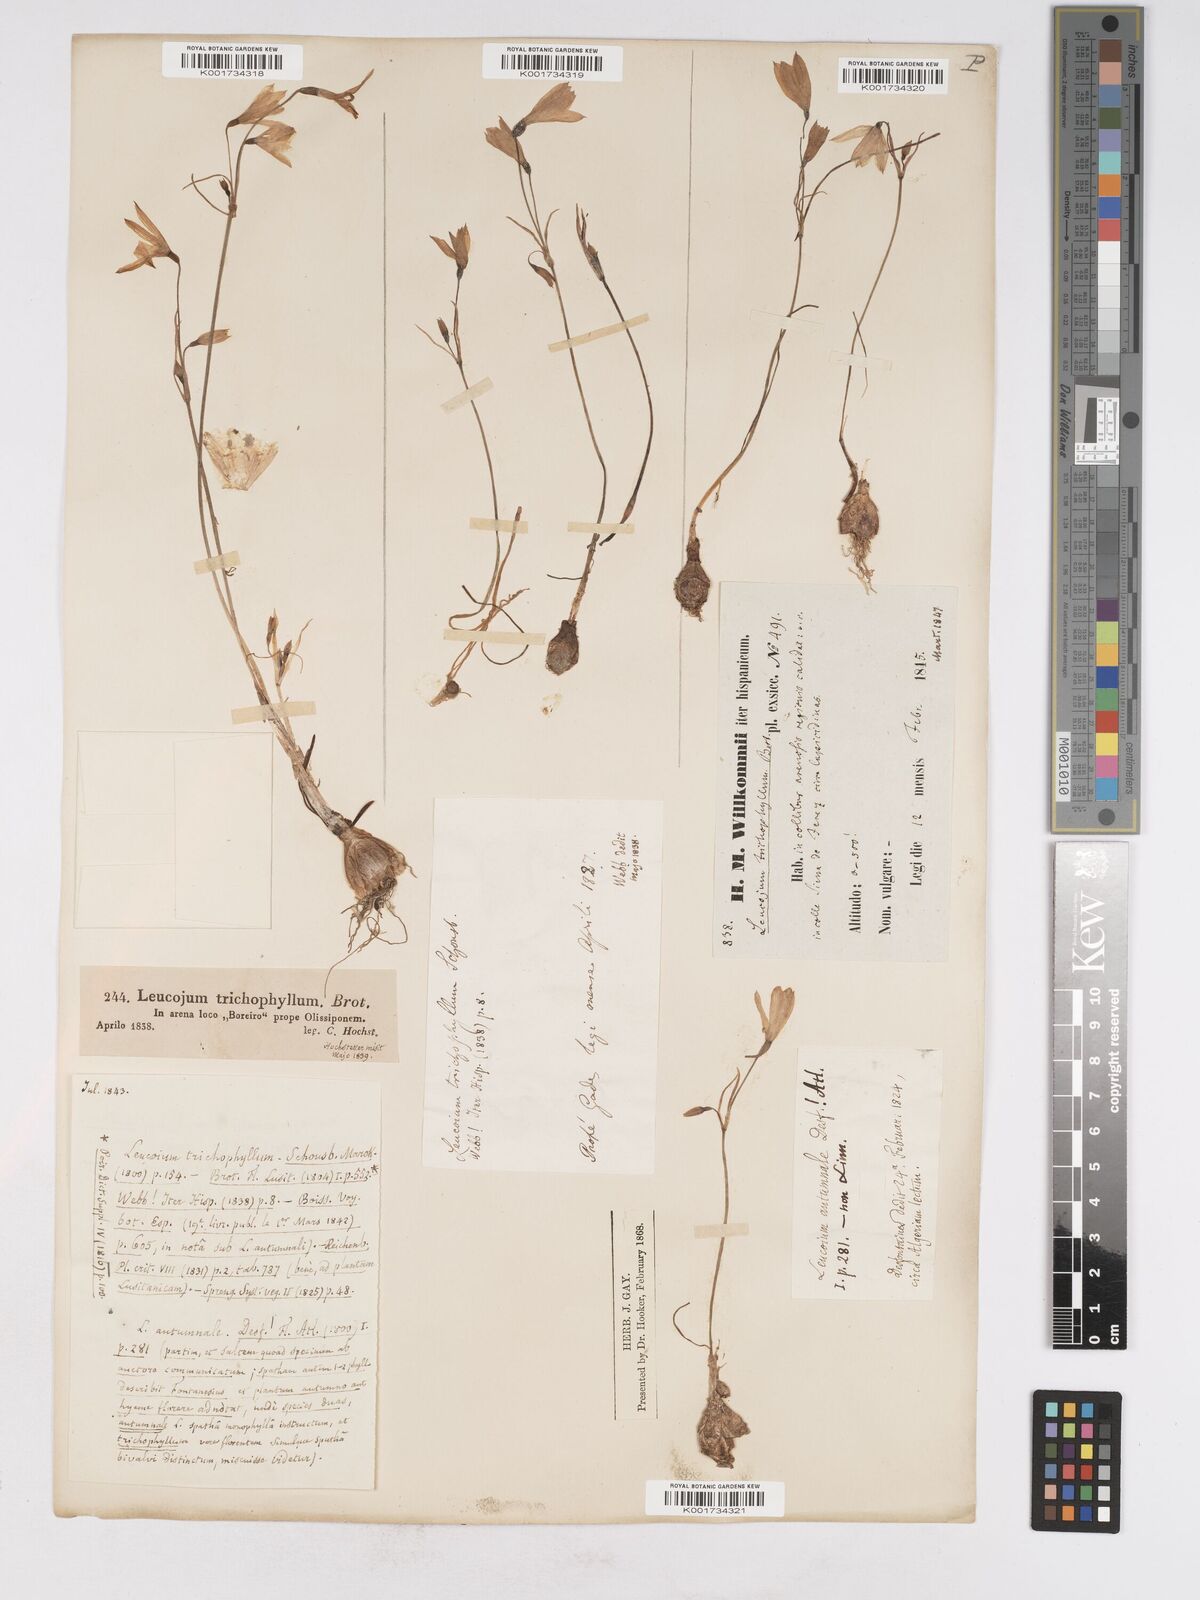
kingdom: Plantae
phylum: Tracheophyta
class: Liliopsida
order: Asparagales
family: Amaryllidaceae
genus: Acis
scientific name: Acis trichophylla
